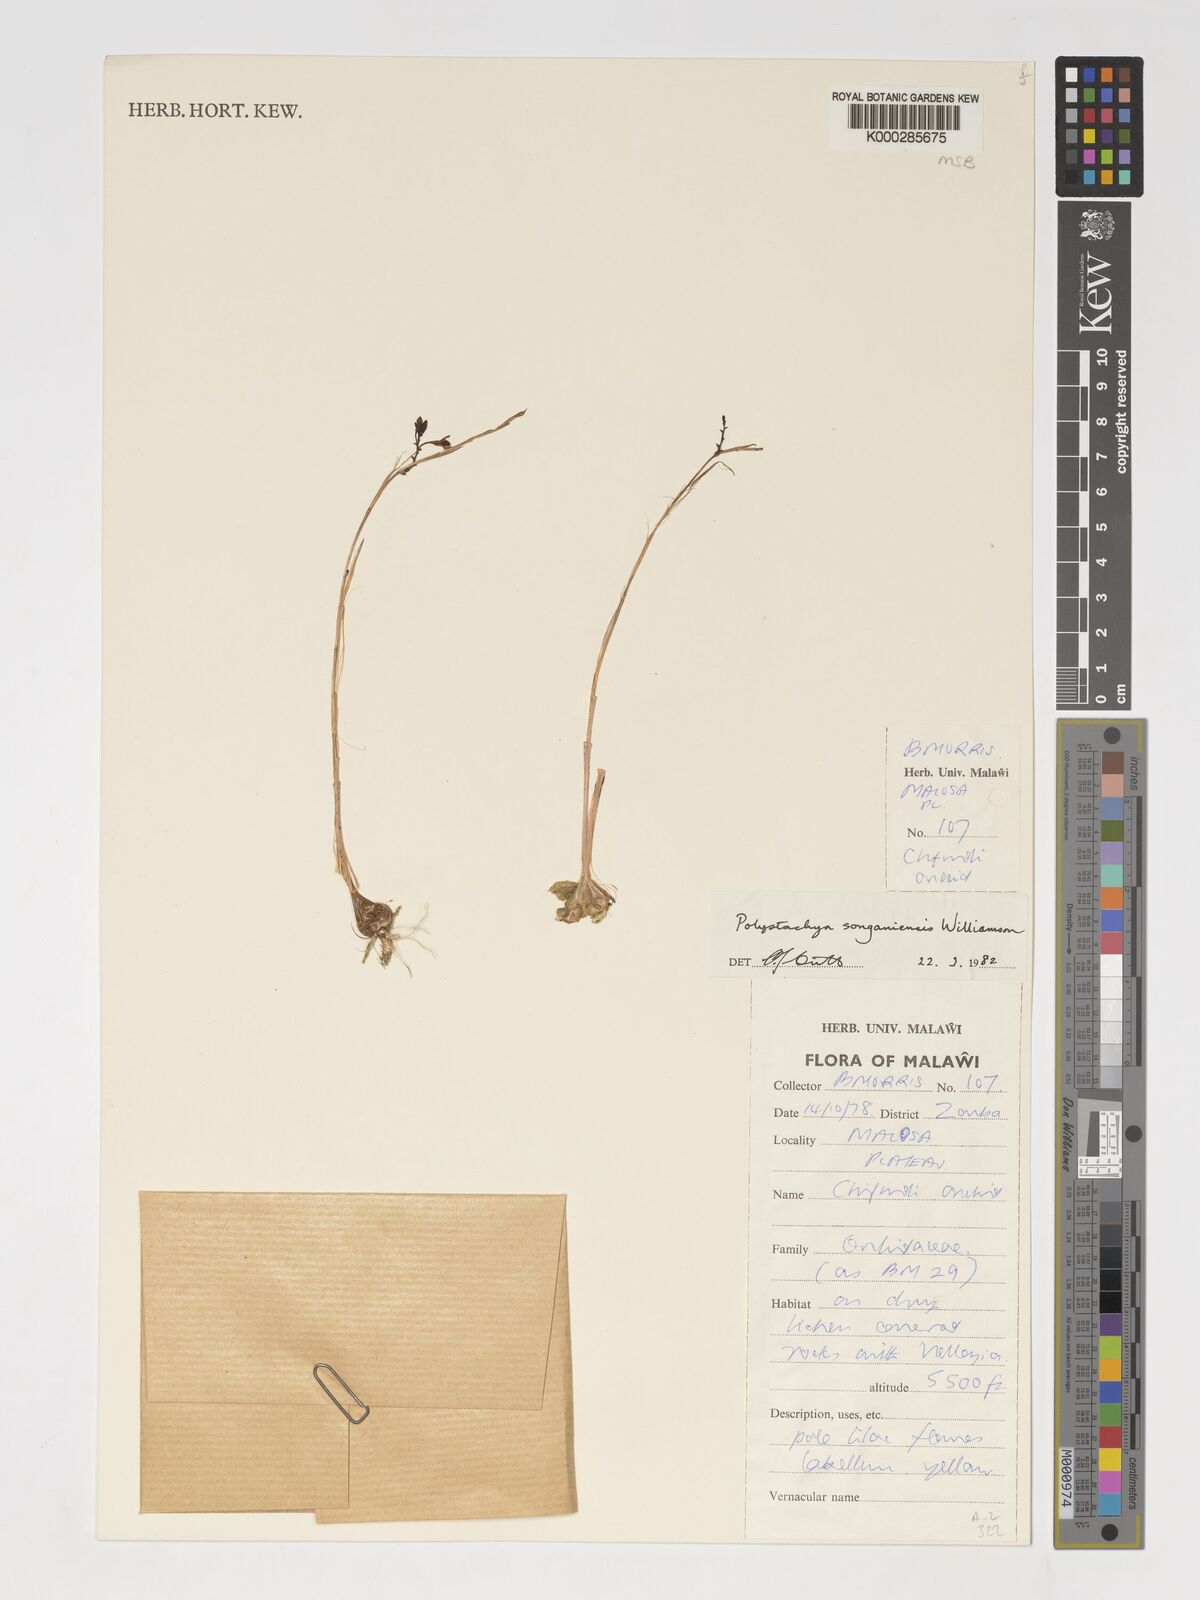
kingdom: Plantae
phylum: Tracheophyta
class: Liliopsida
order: Asparagales
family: Orchidaceae
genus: Polystachya
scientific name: Polystachya songaniensis
